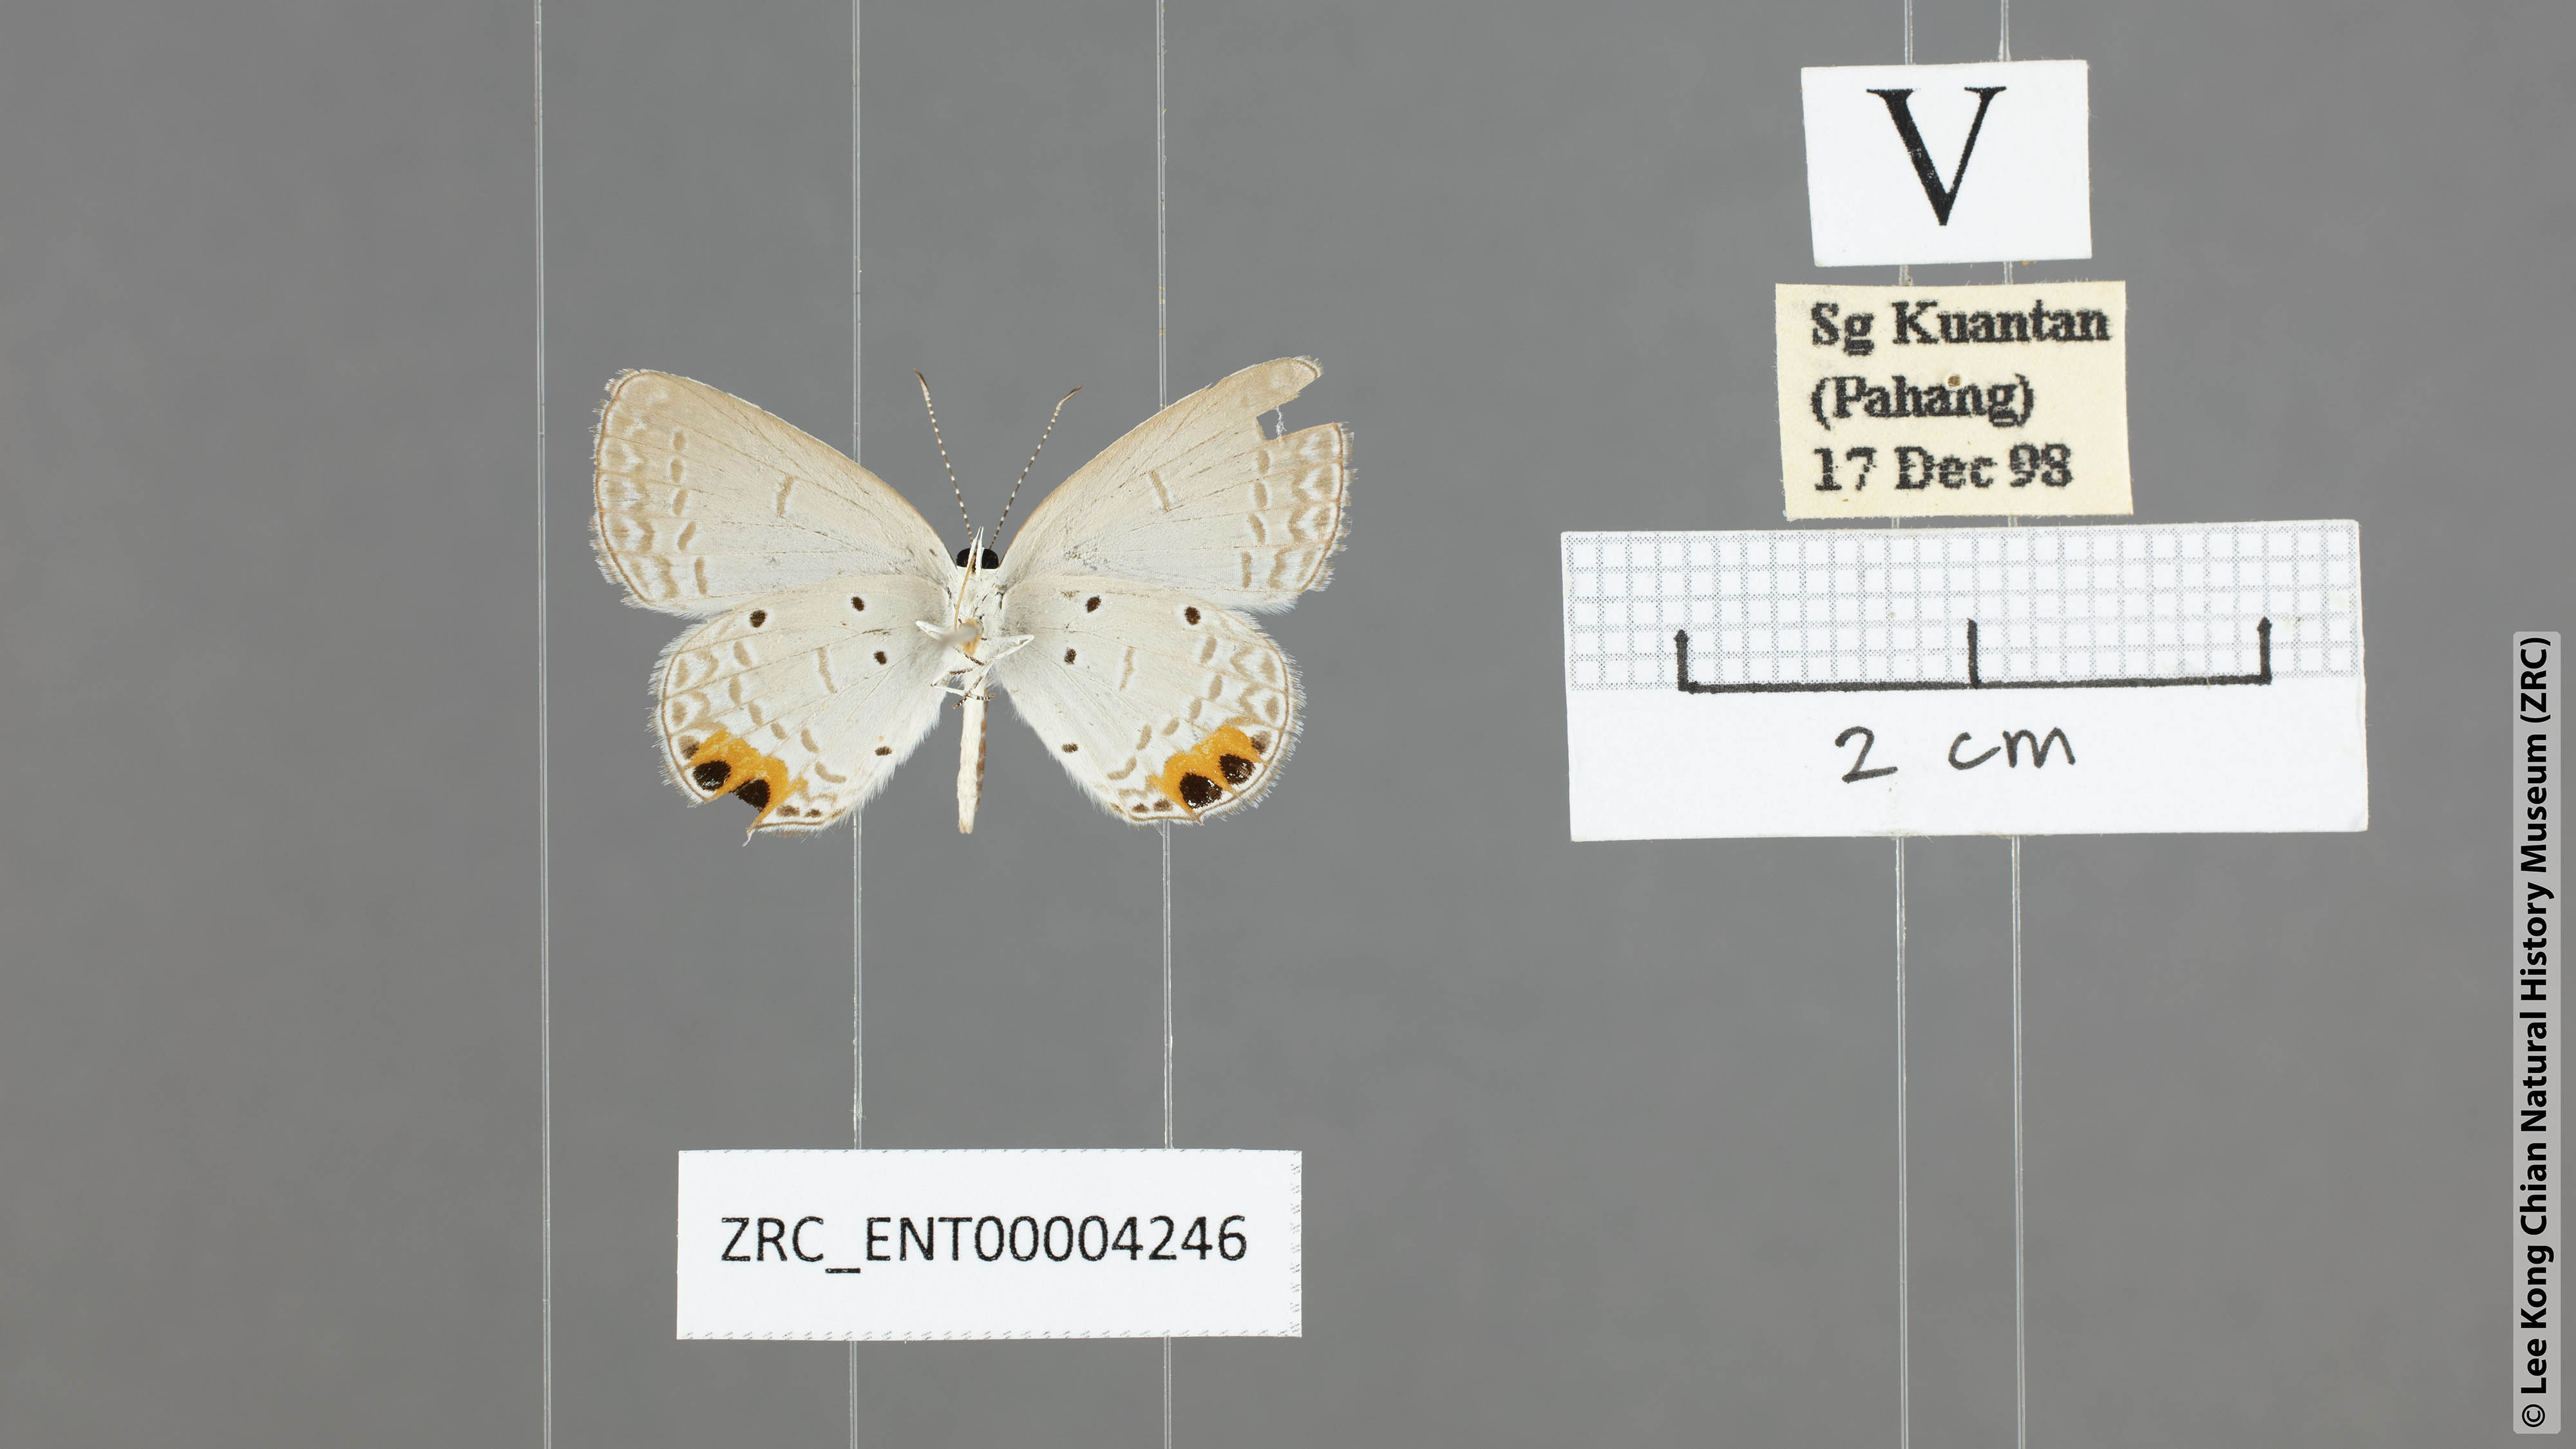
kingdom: Animalia
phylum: Arthropoda
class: Insecta
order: Lepidoptera
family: Lycaenidae
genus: Everes
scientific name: Everes lacturnus
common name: Orange-tipped pea-blue
